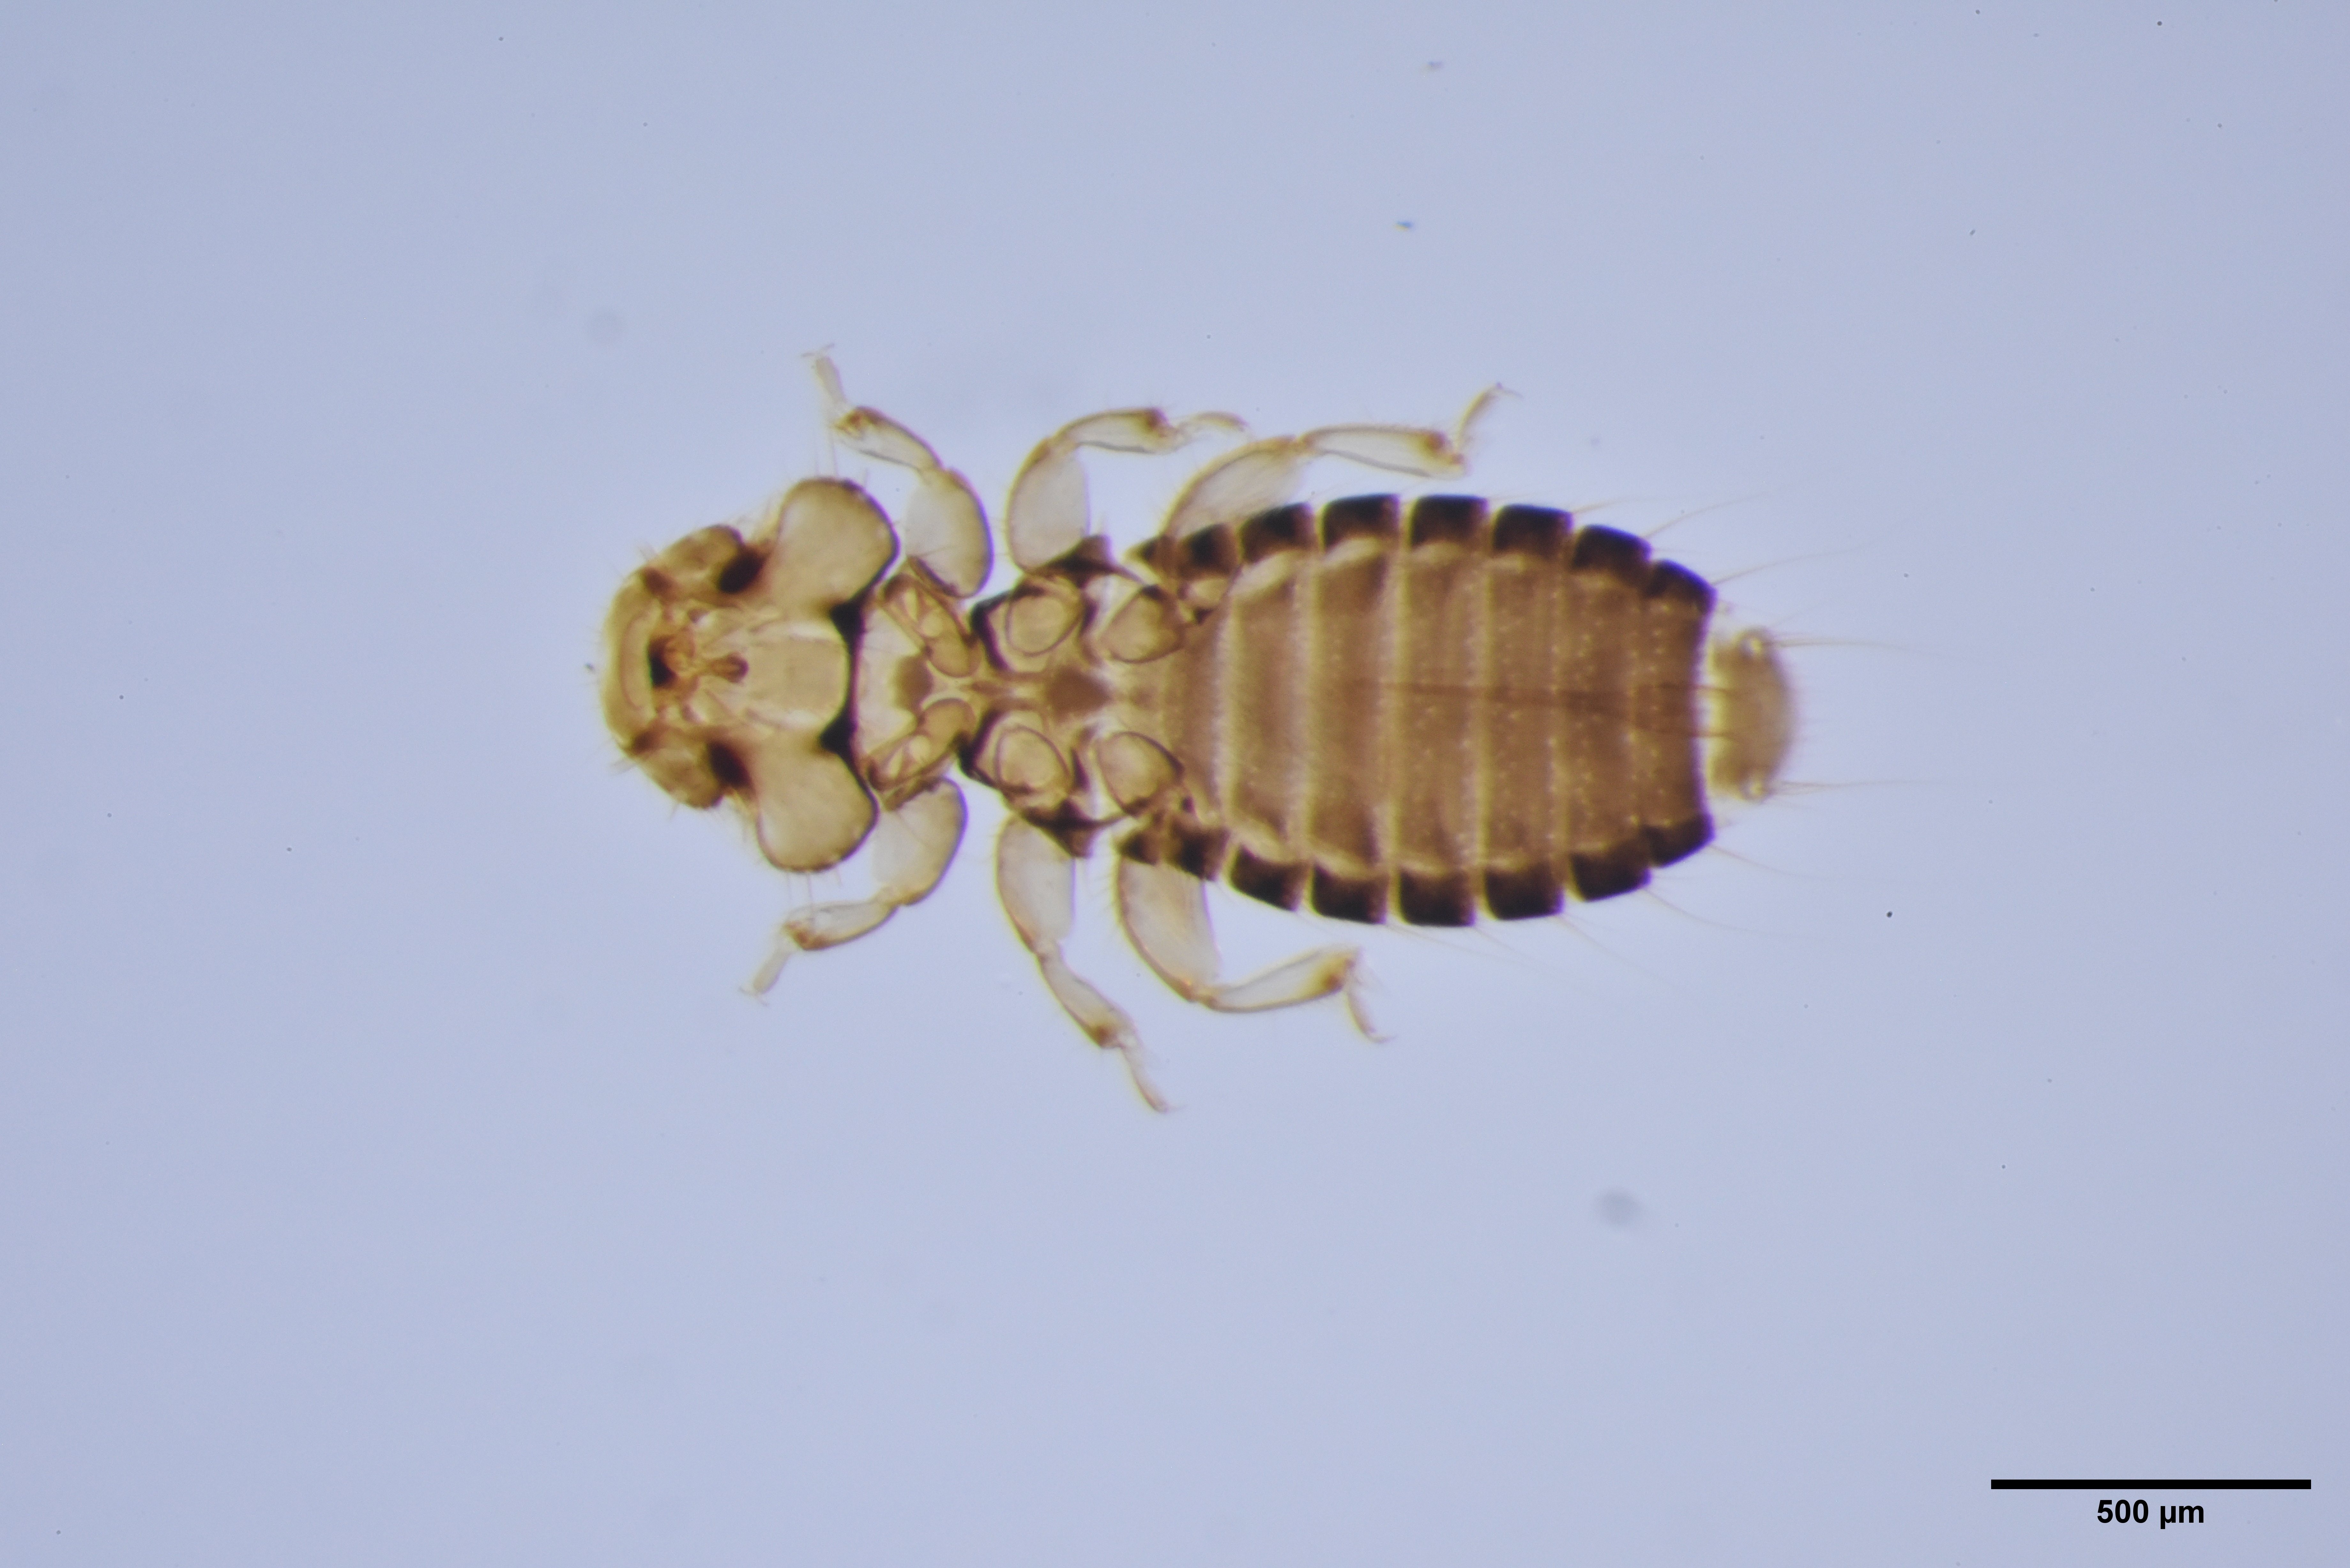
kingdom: Animalia
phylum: Arthropoda
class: Insecta
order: Psocodea
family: Ancistronidae
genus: Actornithophilus
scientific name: Actornithophilus grandiceps
